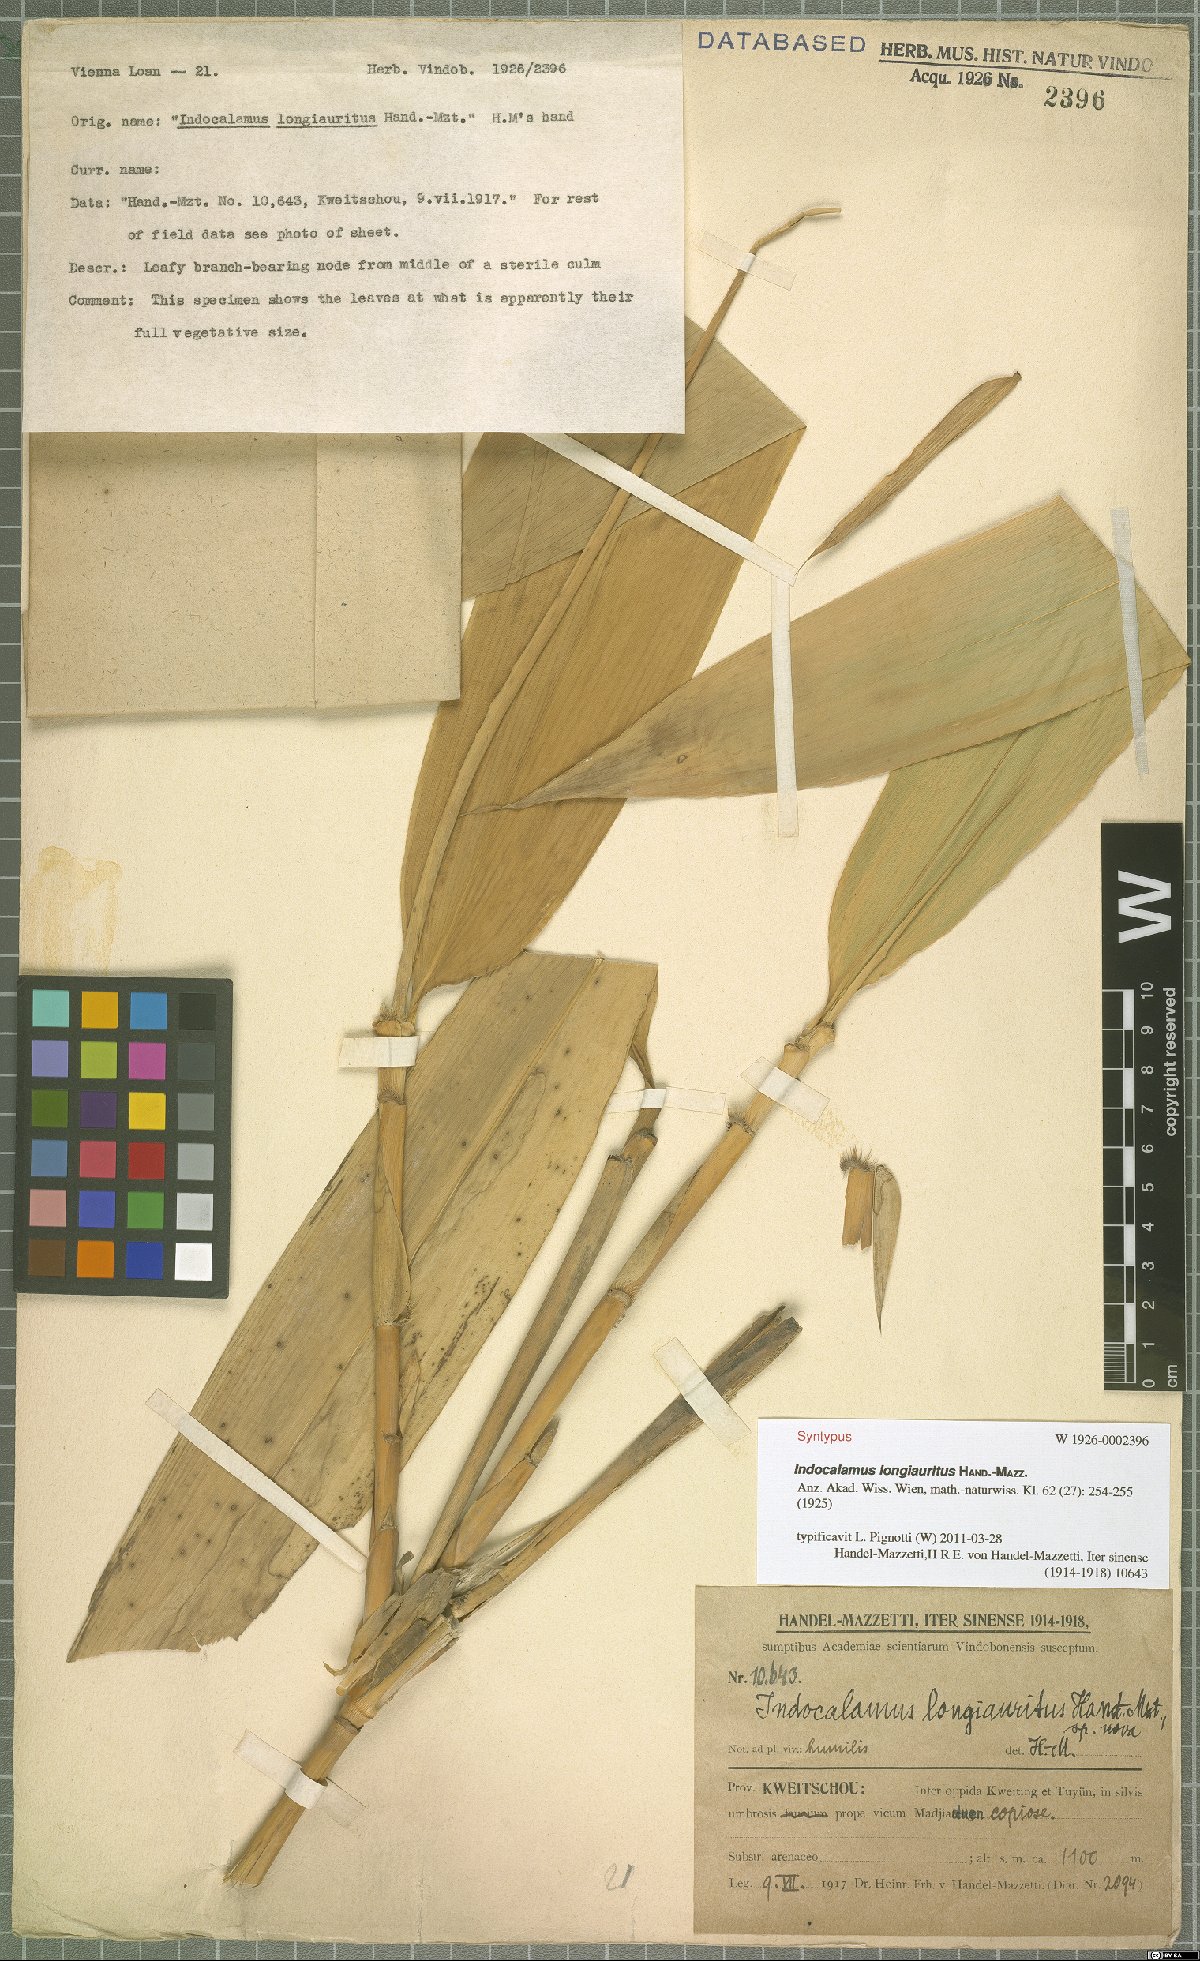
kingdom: Plantae
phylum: Tracheophyta
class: Liliopsida
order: Poales
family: Poaceae
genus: Indocalamus
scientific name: Indocalamus longiauritus
